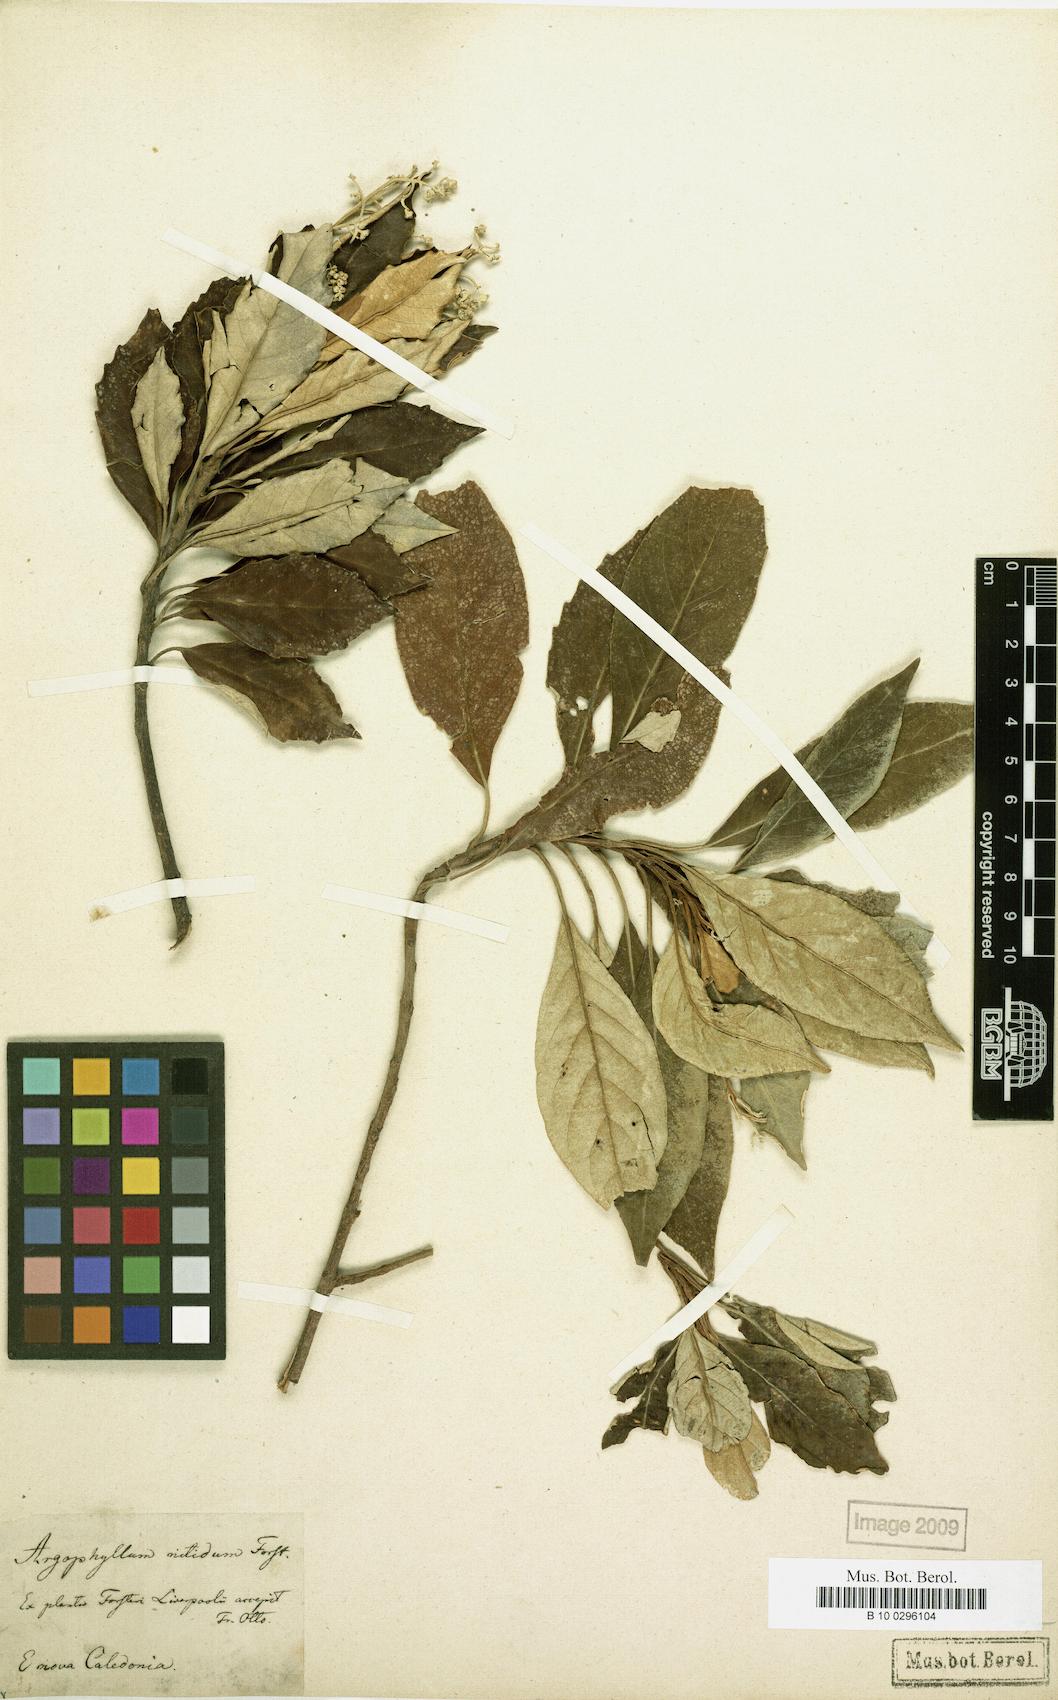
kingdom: Plantae
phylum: Tracheophyta
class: Magnoliopsida
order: Asterales
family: Argophyllaceae
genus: Argophyllum
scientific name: Argophyllum nitidum
